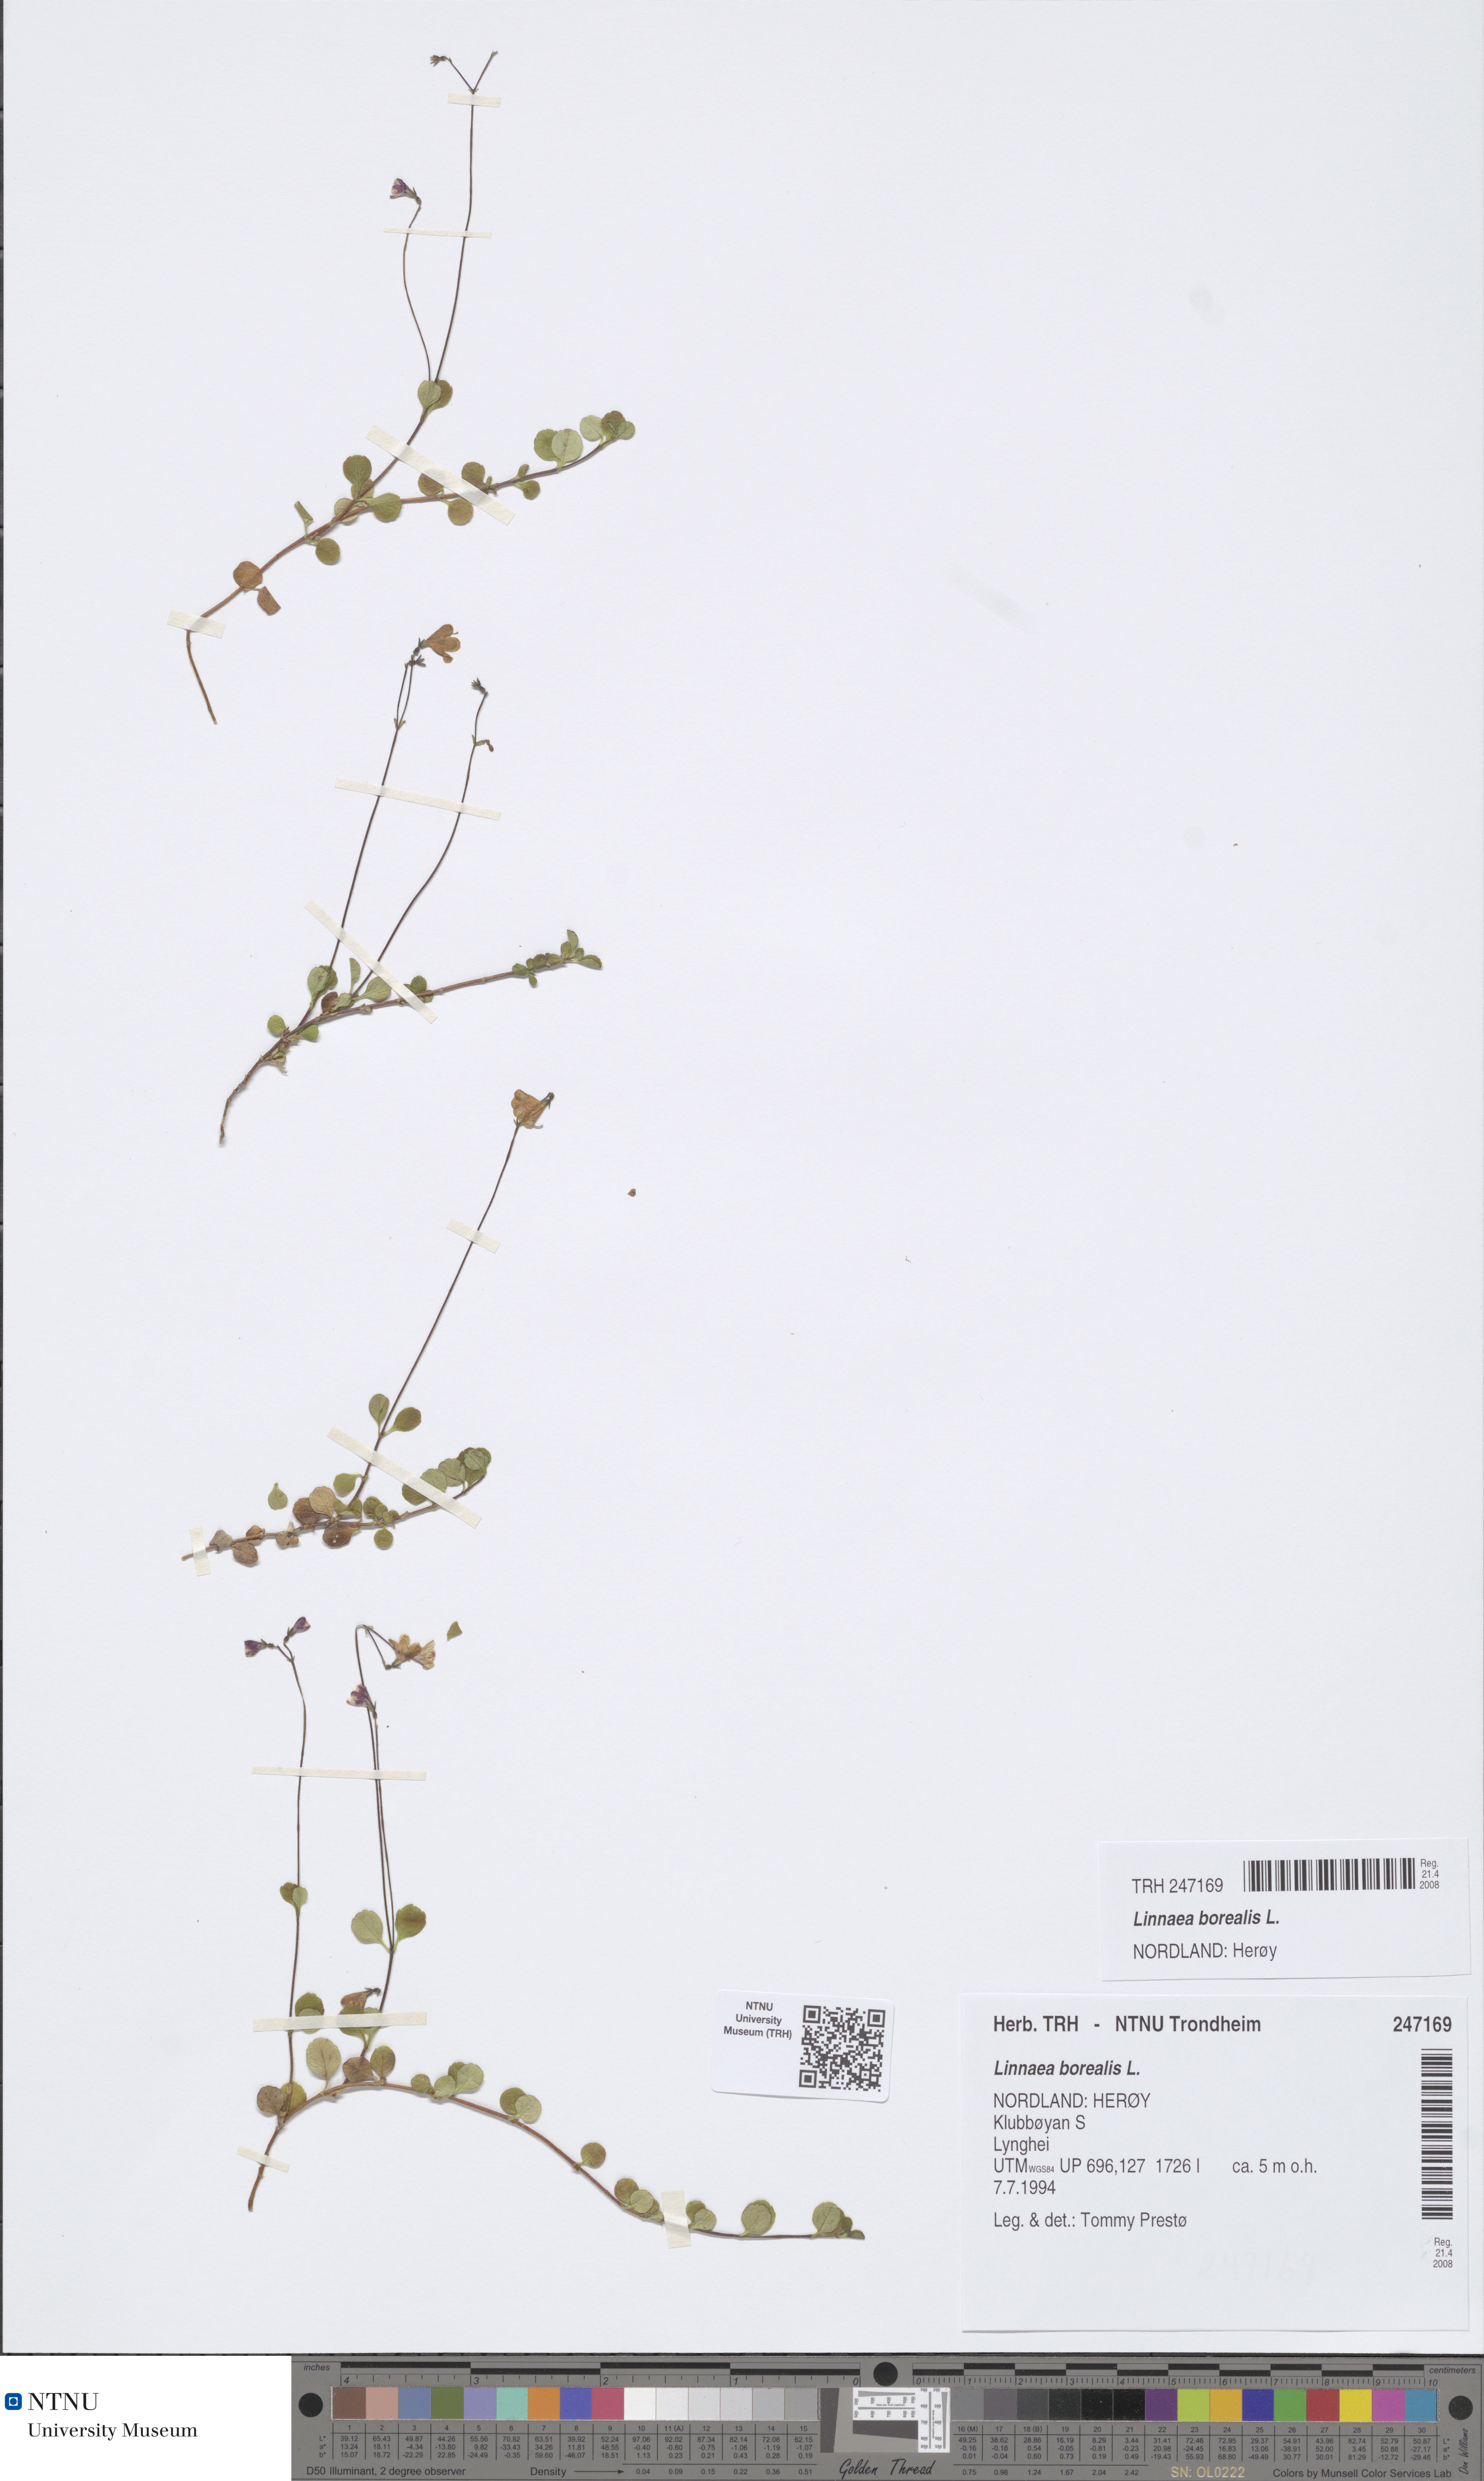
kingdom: Plantae
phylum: Tracheophyta
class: Magnoliopsida
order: Dipsacales
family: Caprifoliaceae
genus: Linnaea
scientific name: Linnaea borealis
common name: Twinflower
